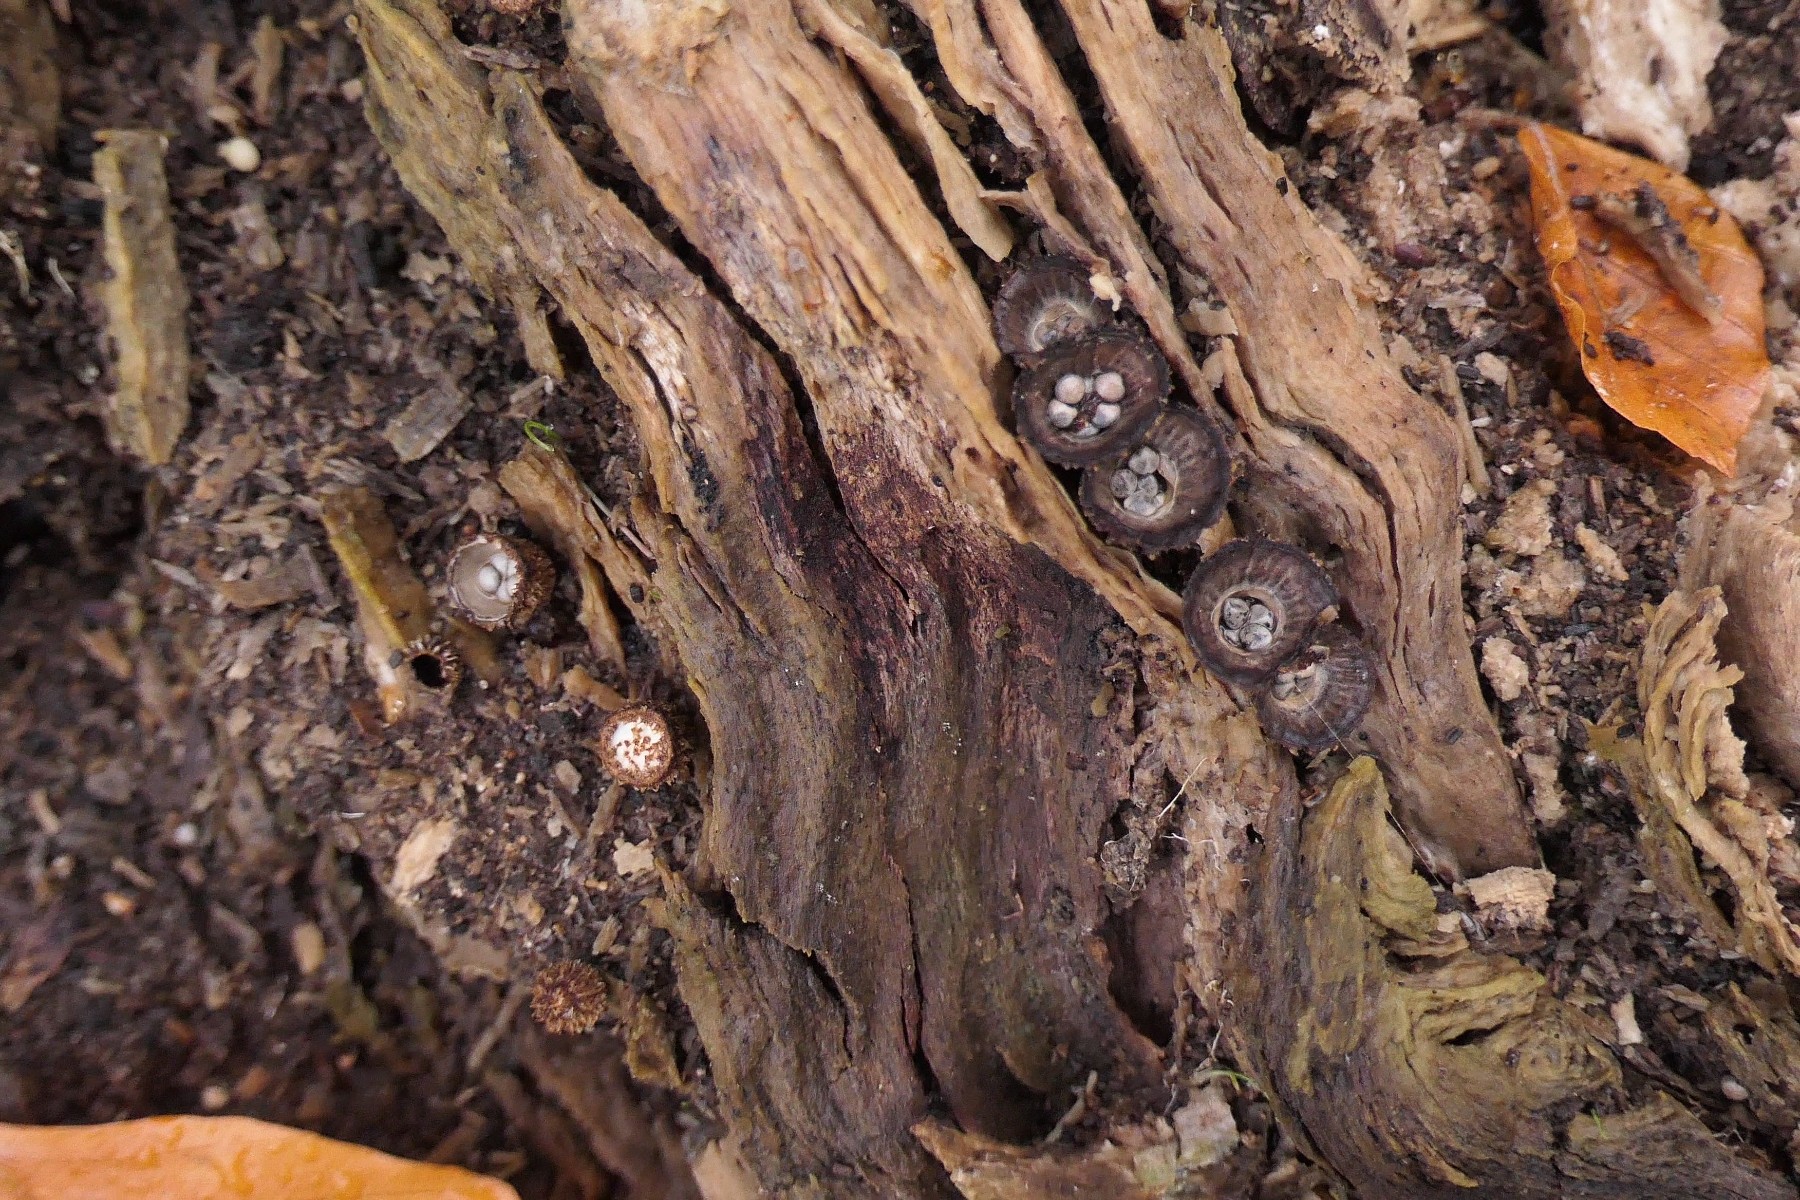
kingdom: Fungi
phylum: Basidiomycota
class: Agaricomycetes
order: Agaricales
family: Agaricaceae
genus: Cyathus
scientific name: Cyathus striatus
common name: stribet redesvamp
